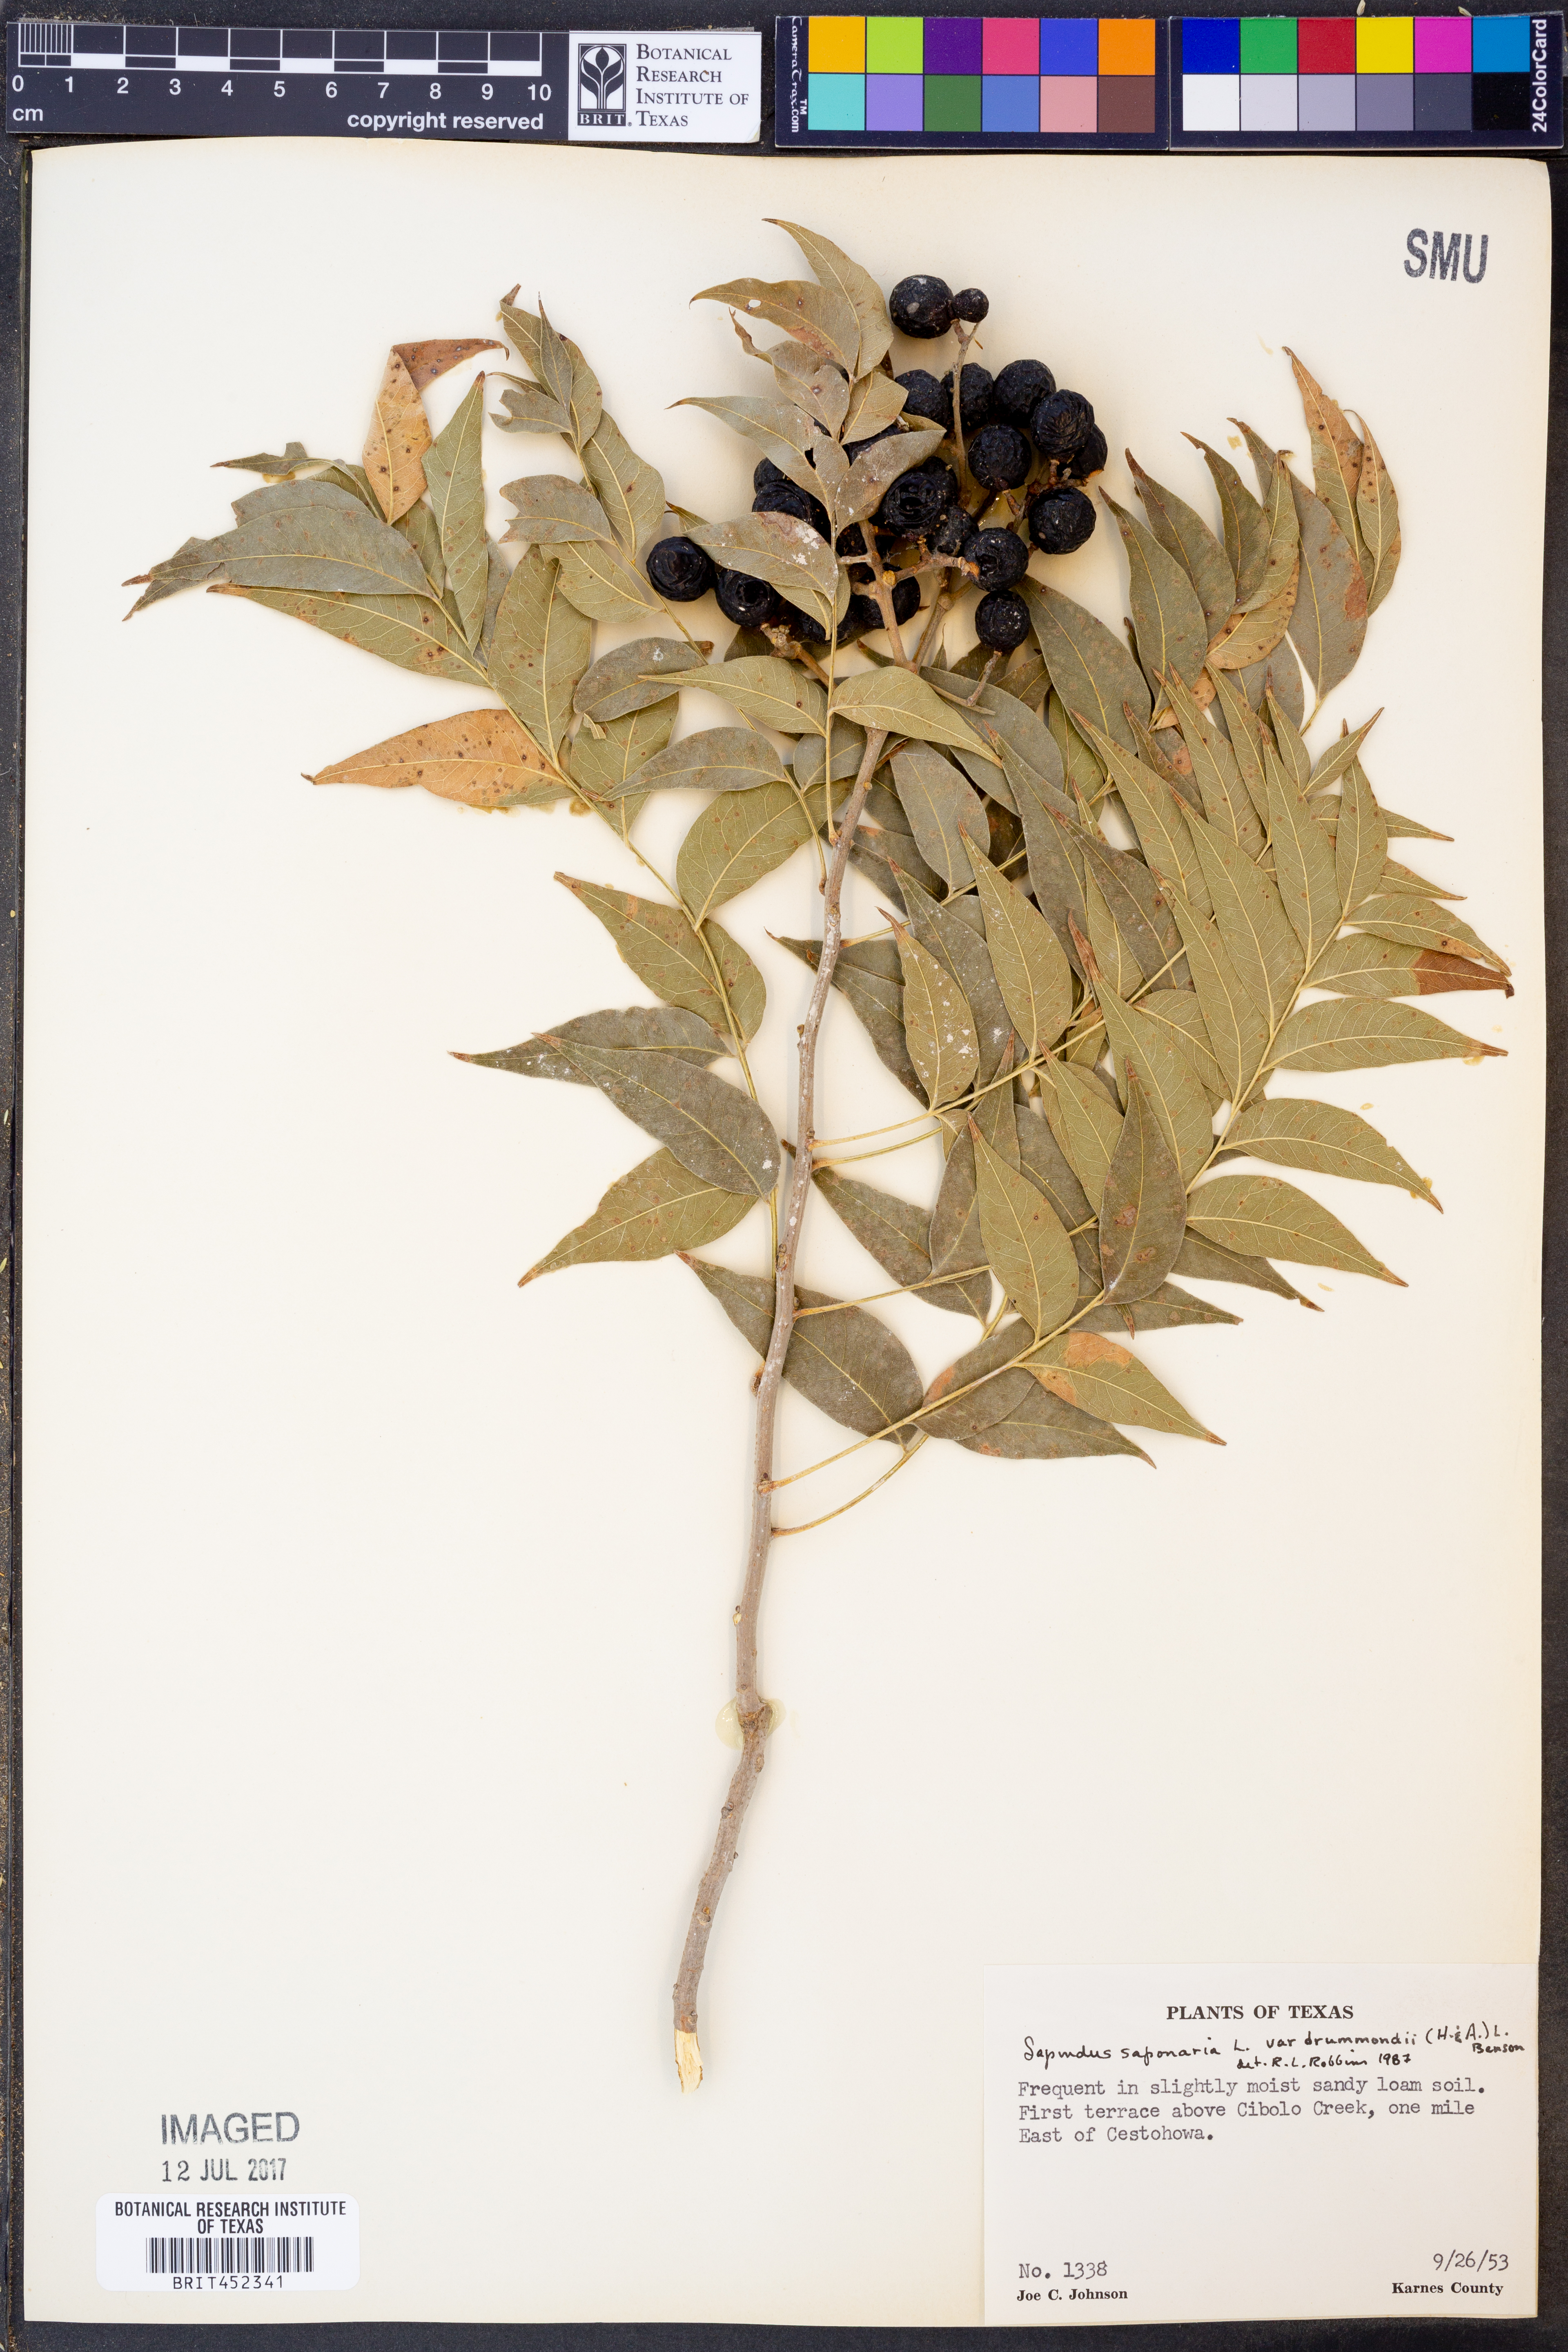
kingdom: Plantae
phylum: Tracheophyta
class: Magnoliopsida
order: Sapindales
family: Sapindaceae
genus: Sapindus
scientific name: Sapindus drummondii
